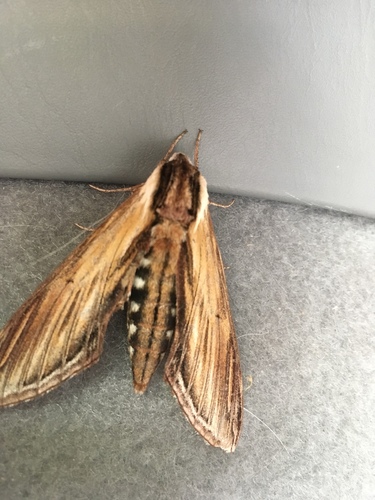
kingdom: Animalia
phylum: Arthropoda
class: Insecta
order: Lepidoptera
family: Sphingidae
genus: Sphinx
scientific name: Sphinx kalmiae
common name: Laurel sphinx
